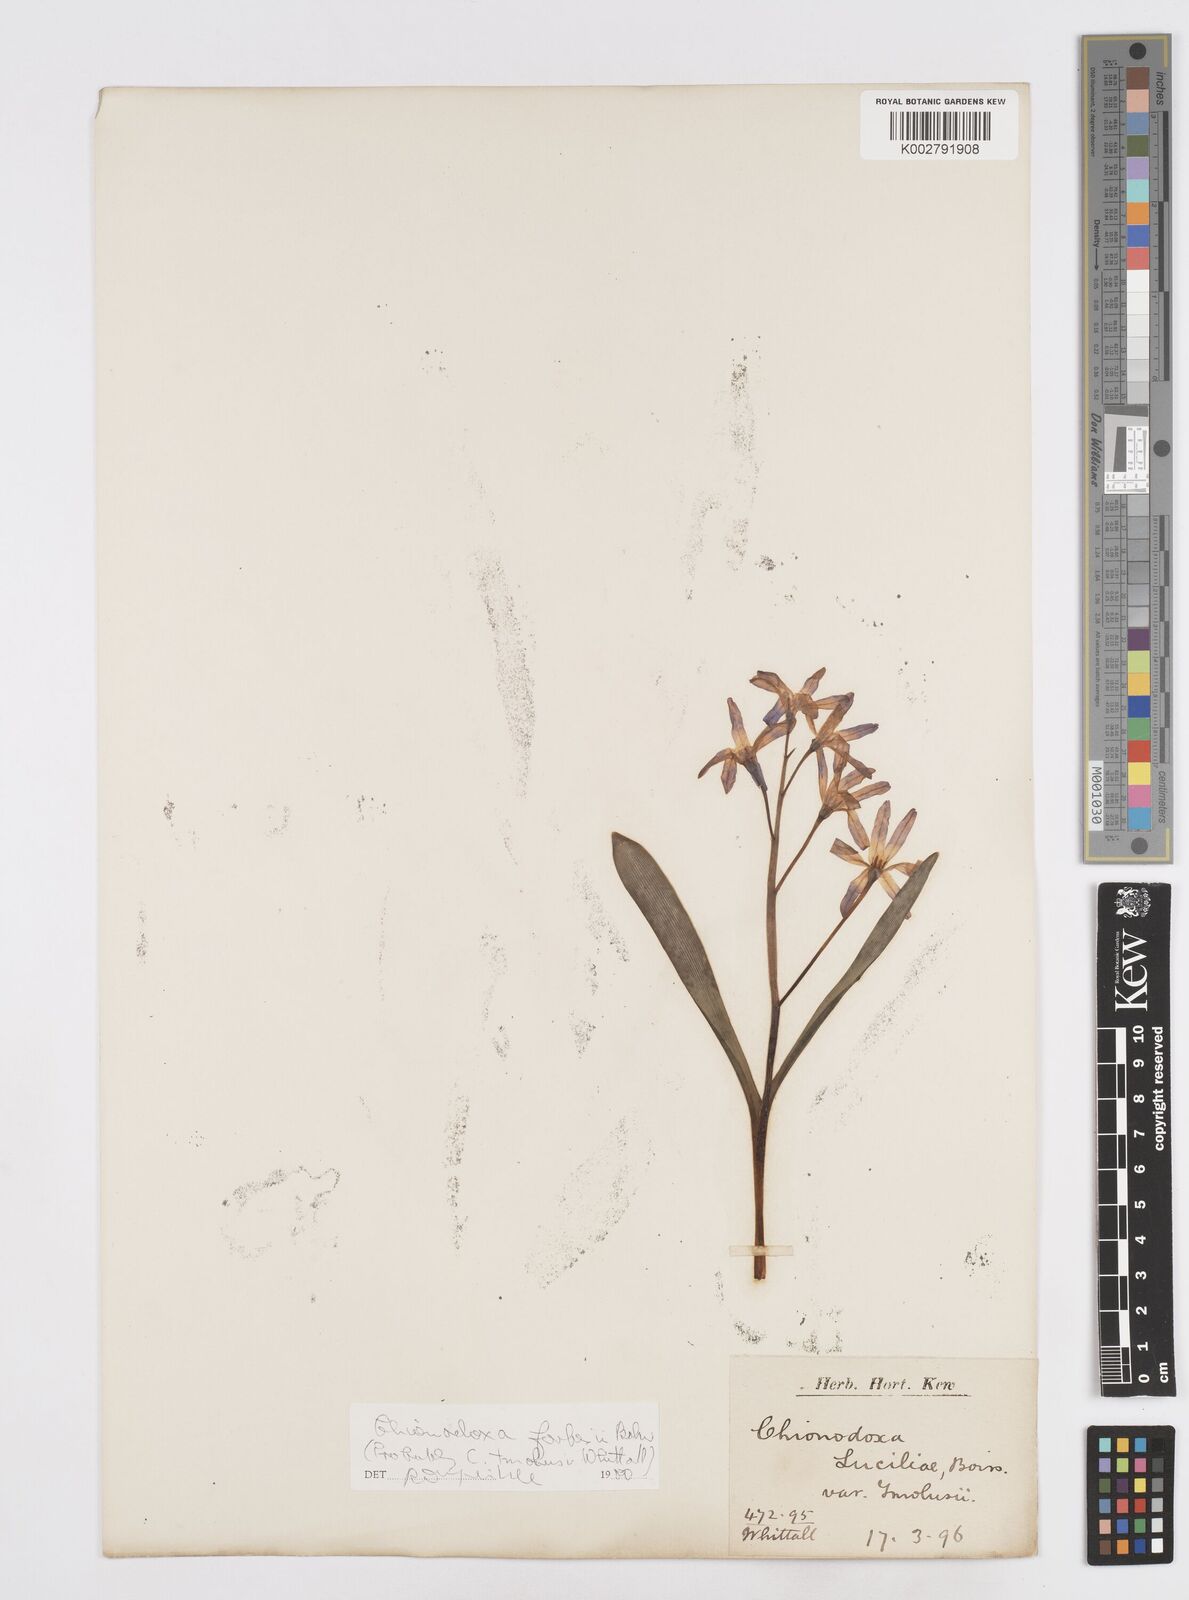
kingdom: Plantae
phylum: Tracheophyta
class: Liliopsida
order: Asparagales
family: Asparagaceae
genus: Scilla
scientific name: Scilla forbesii
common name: Glory-of-the-snow
